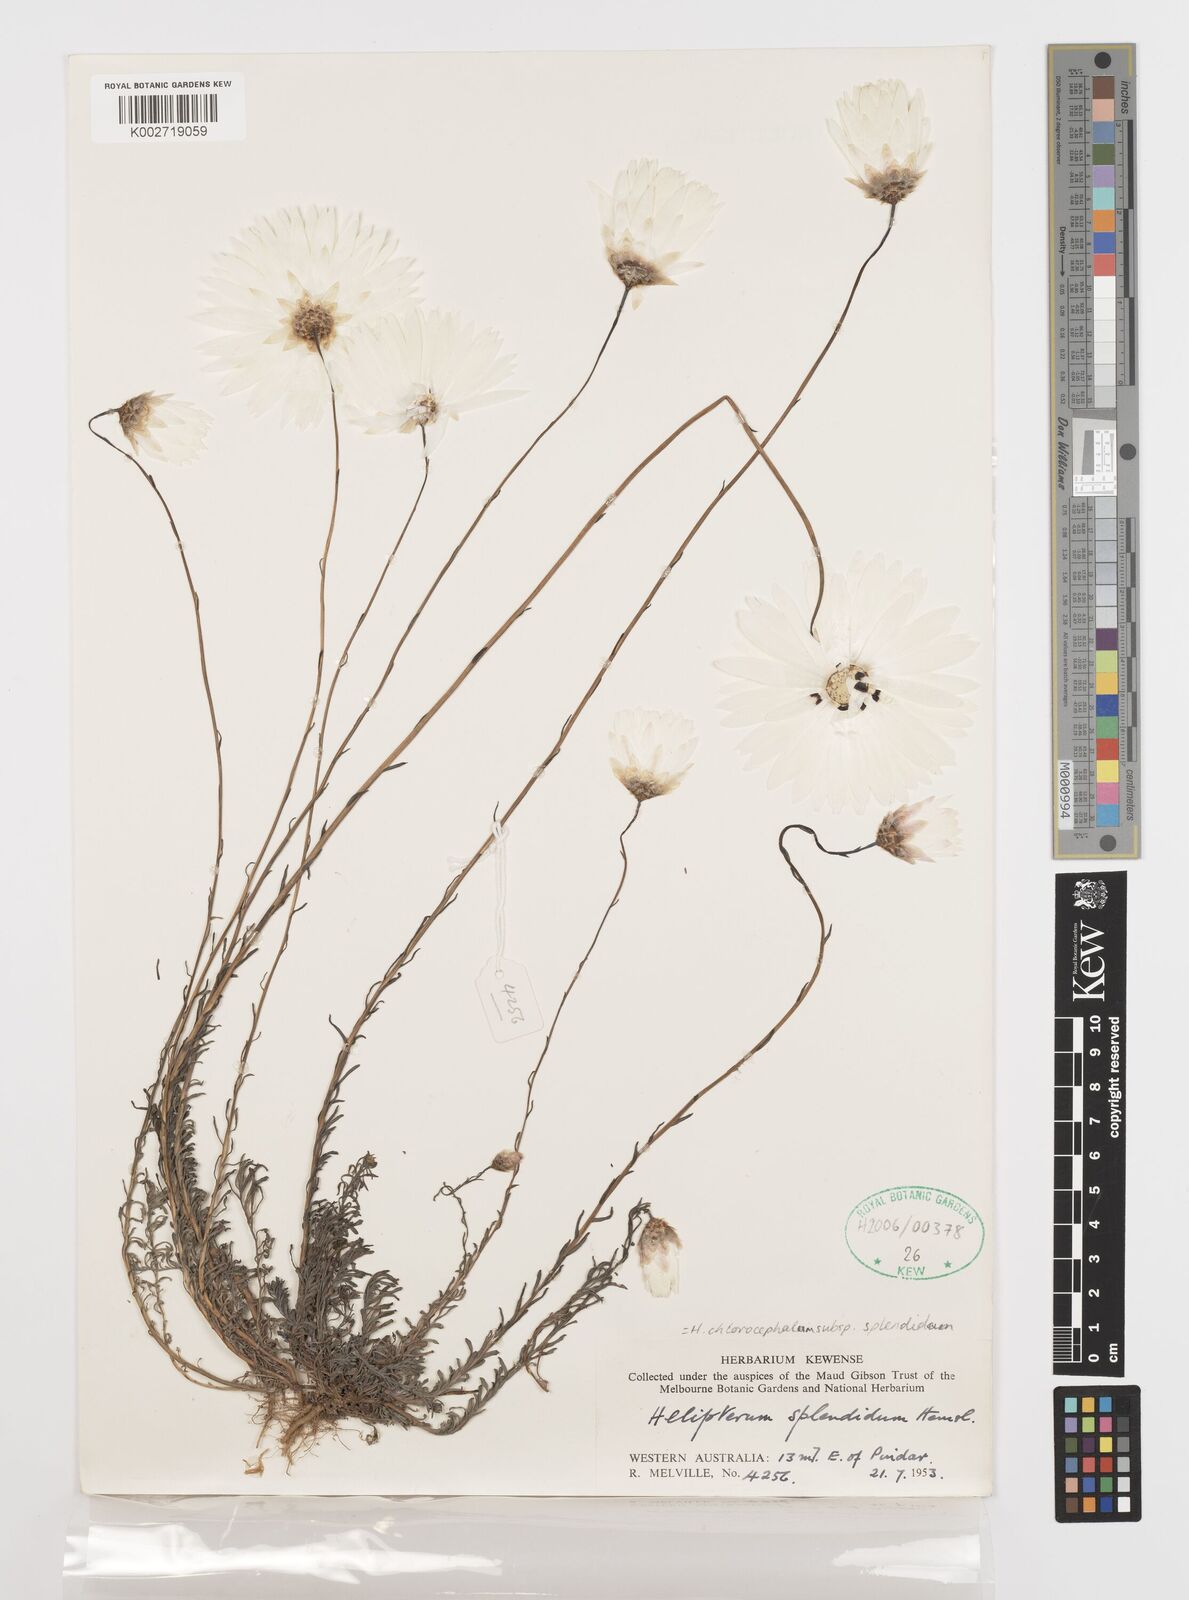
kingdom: Plantae
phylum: Tracheophyta
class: Magnoliopsida
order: Asterales
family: Asteraceae
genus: Rhodanthe
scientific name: Rhodanthe chlorocephala
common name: Rosy sunray
